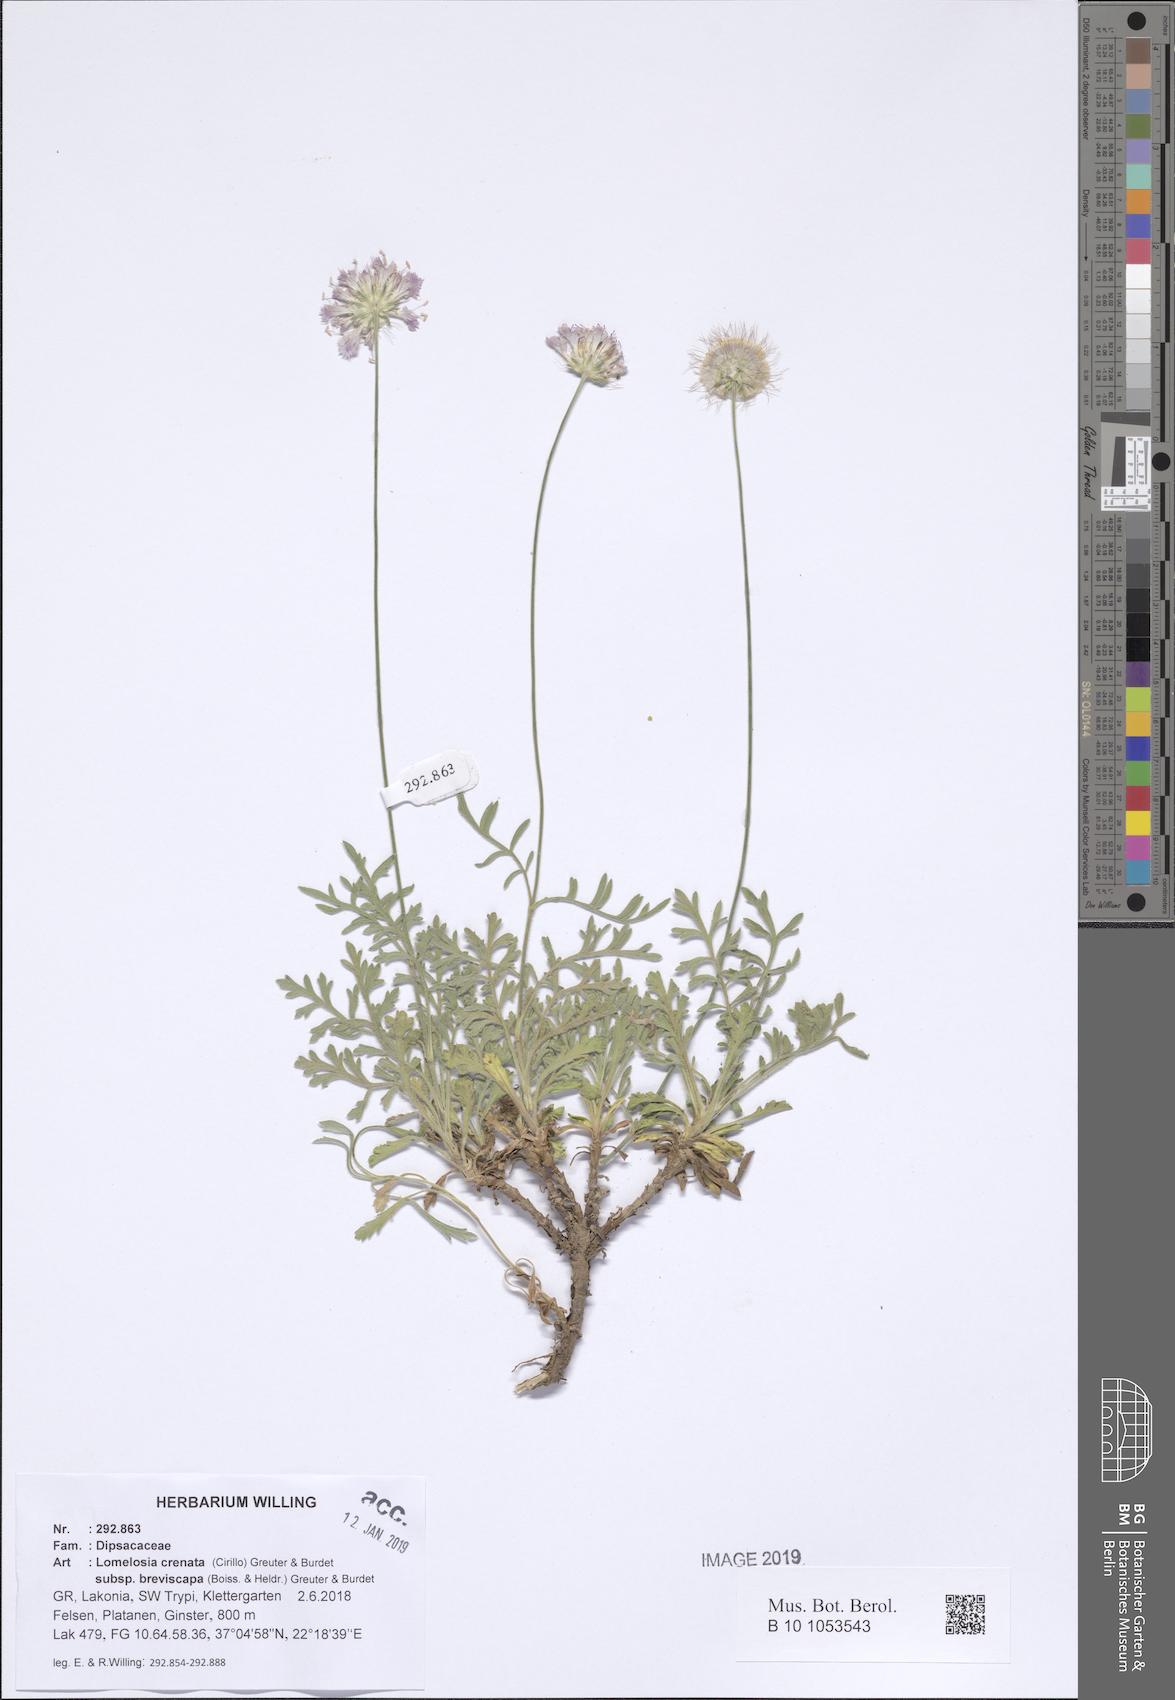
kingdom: Plantae
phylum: Tracheophyta
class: Magnoliopsida
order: Dipsacales
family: Caprifoliaceae
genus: Lomelosia
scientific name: Lomelosia crenata
